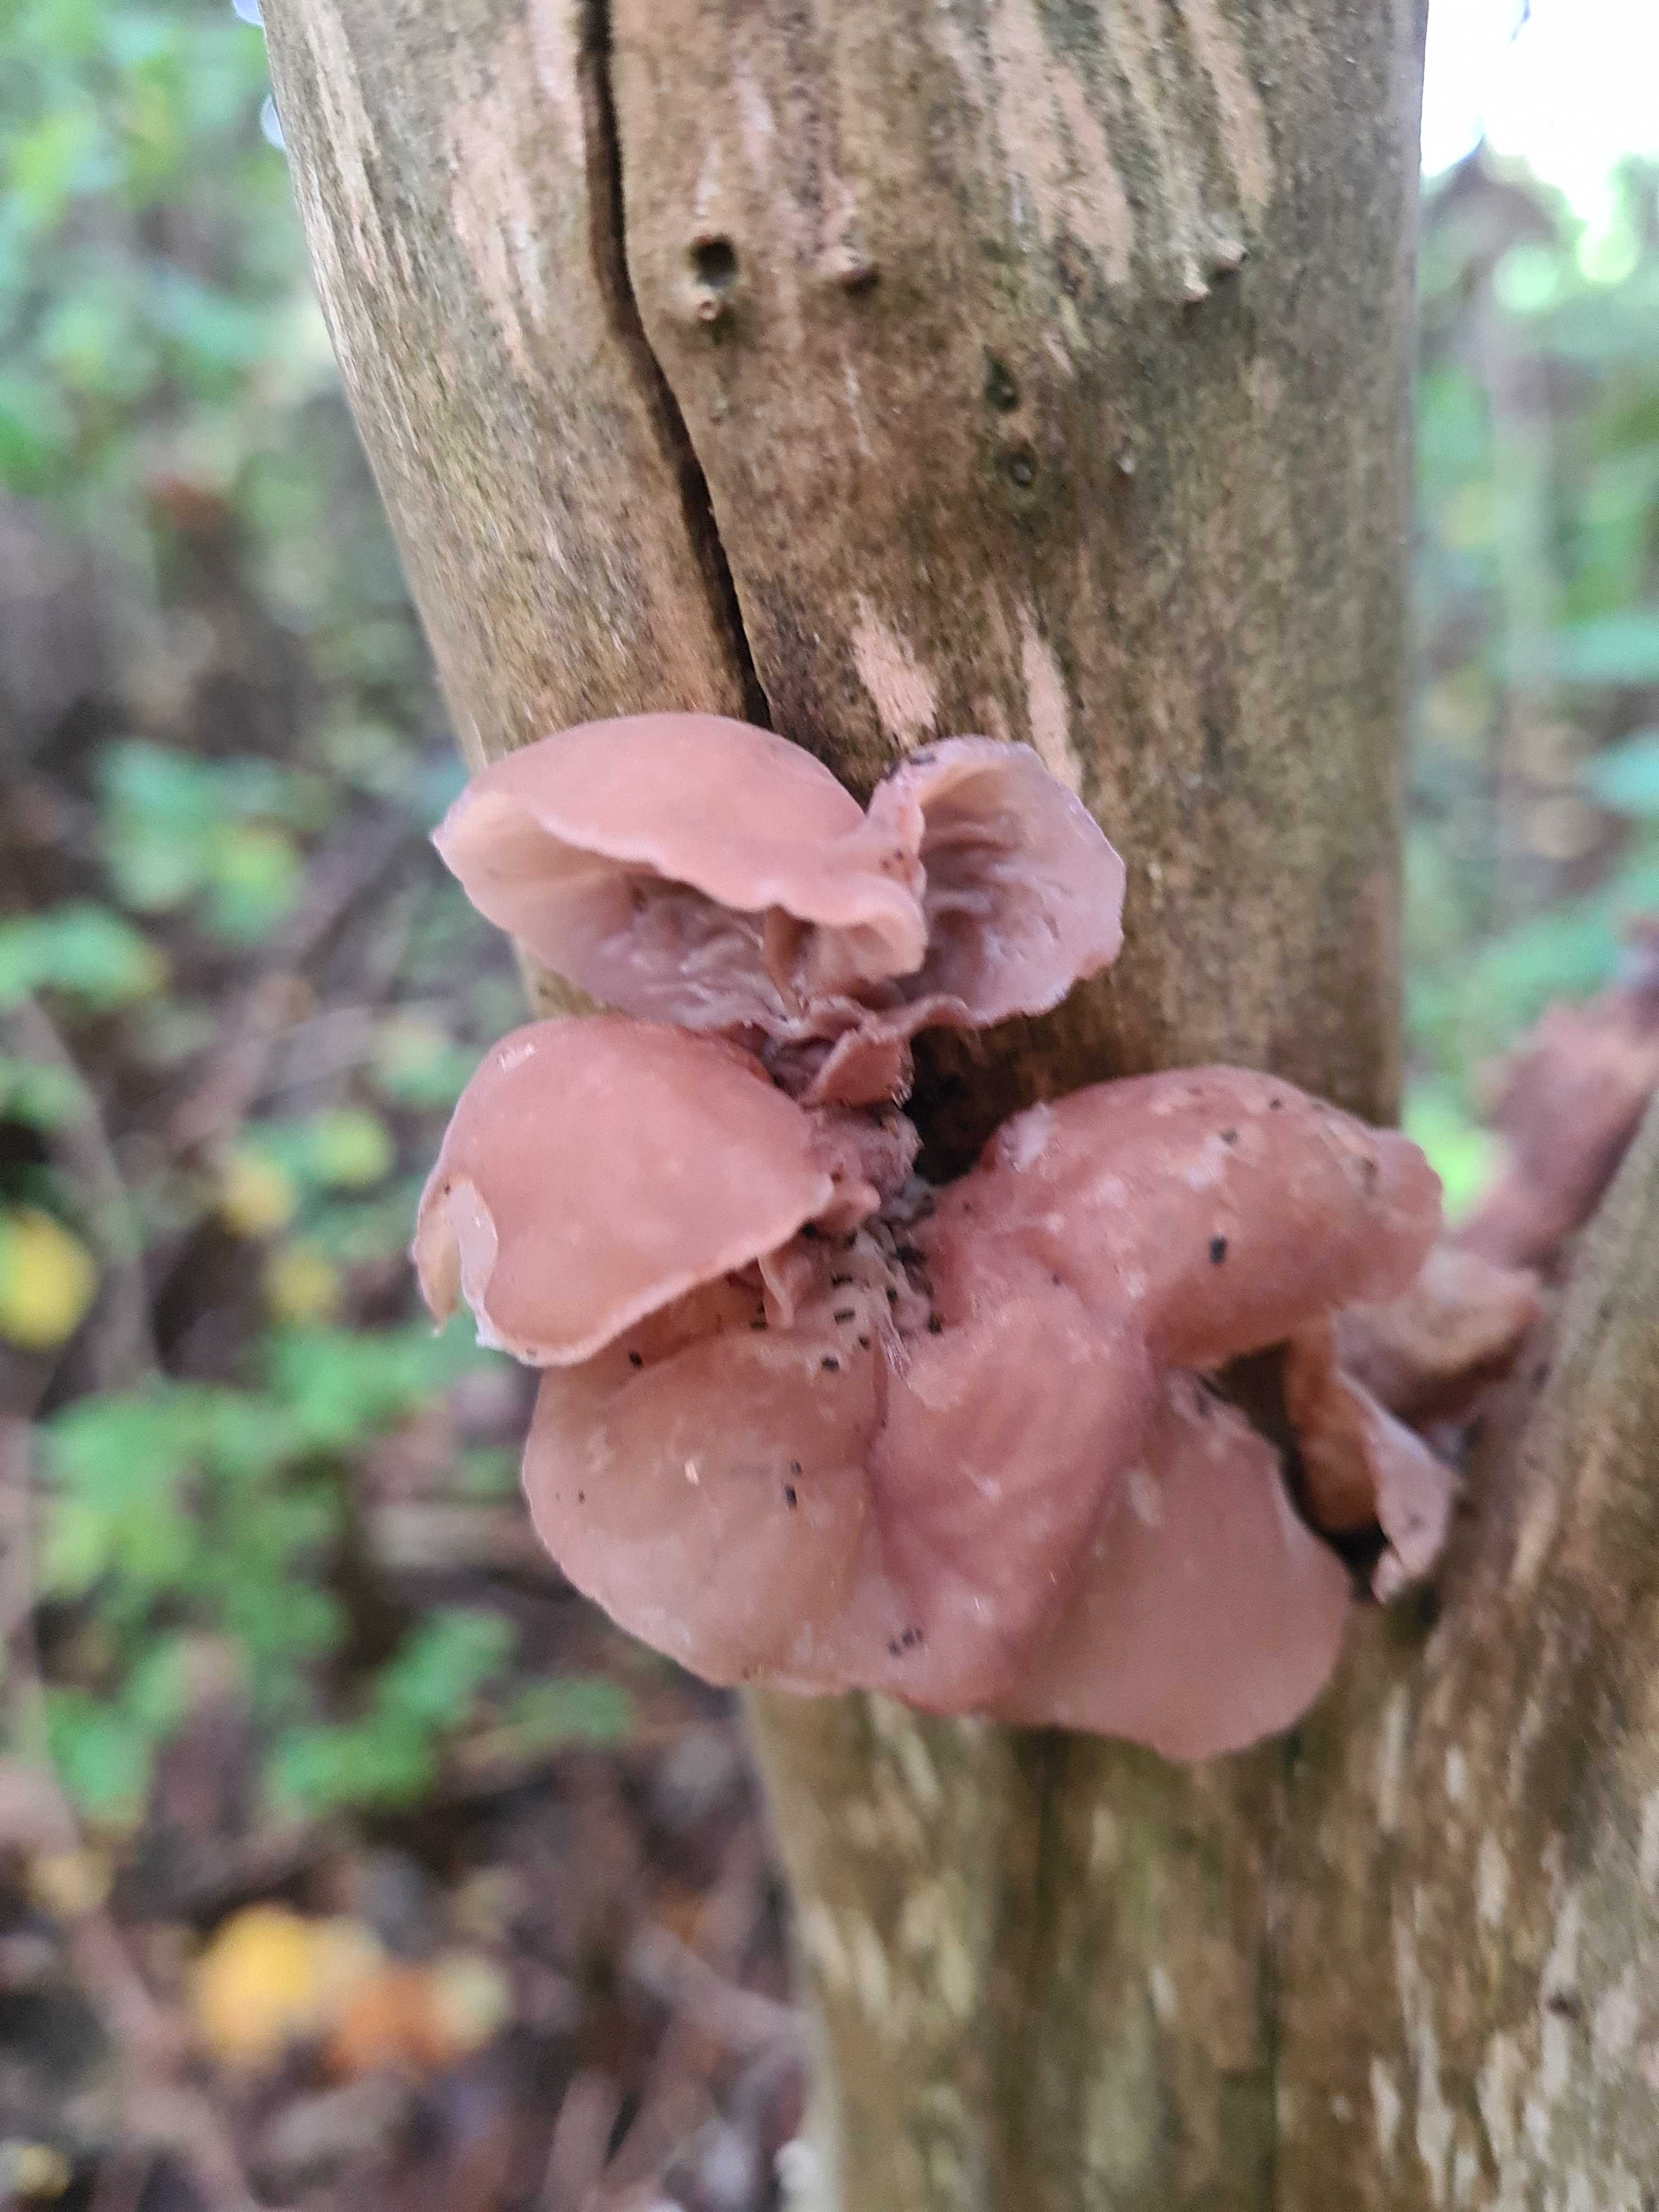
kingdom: Fungi
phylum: Basidiomycota
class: Agaricomycetes
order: Auriculariales
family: Auriculariaceae
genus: Auricularia
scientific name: Auricularia auricula-judae
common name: almindelig judasøre
